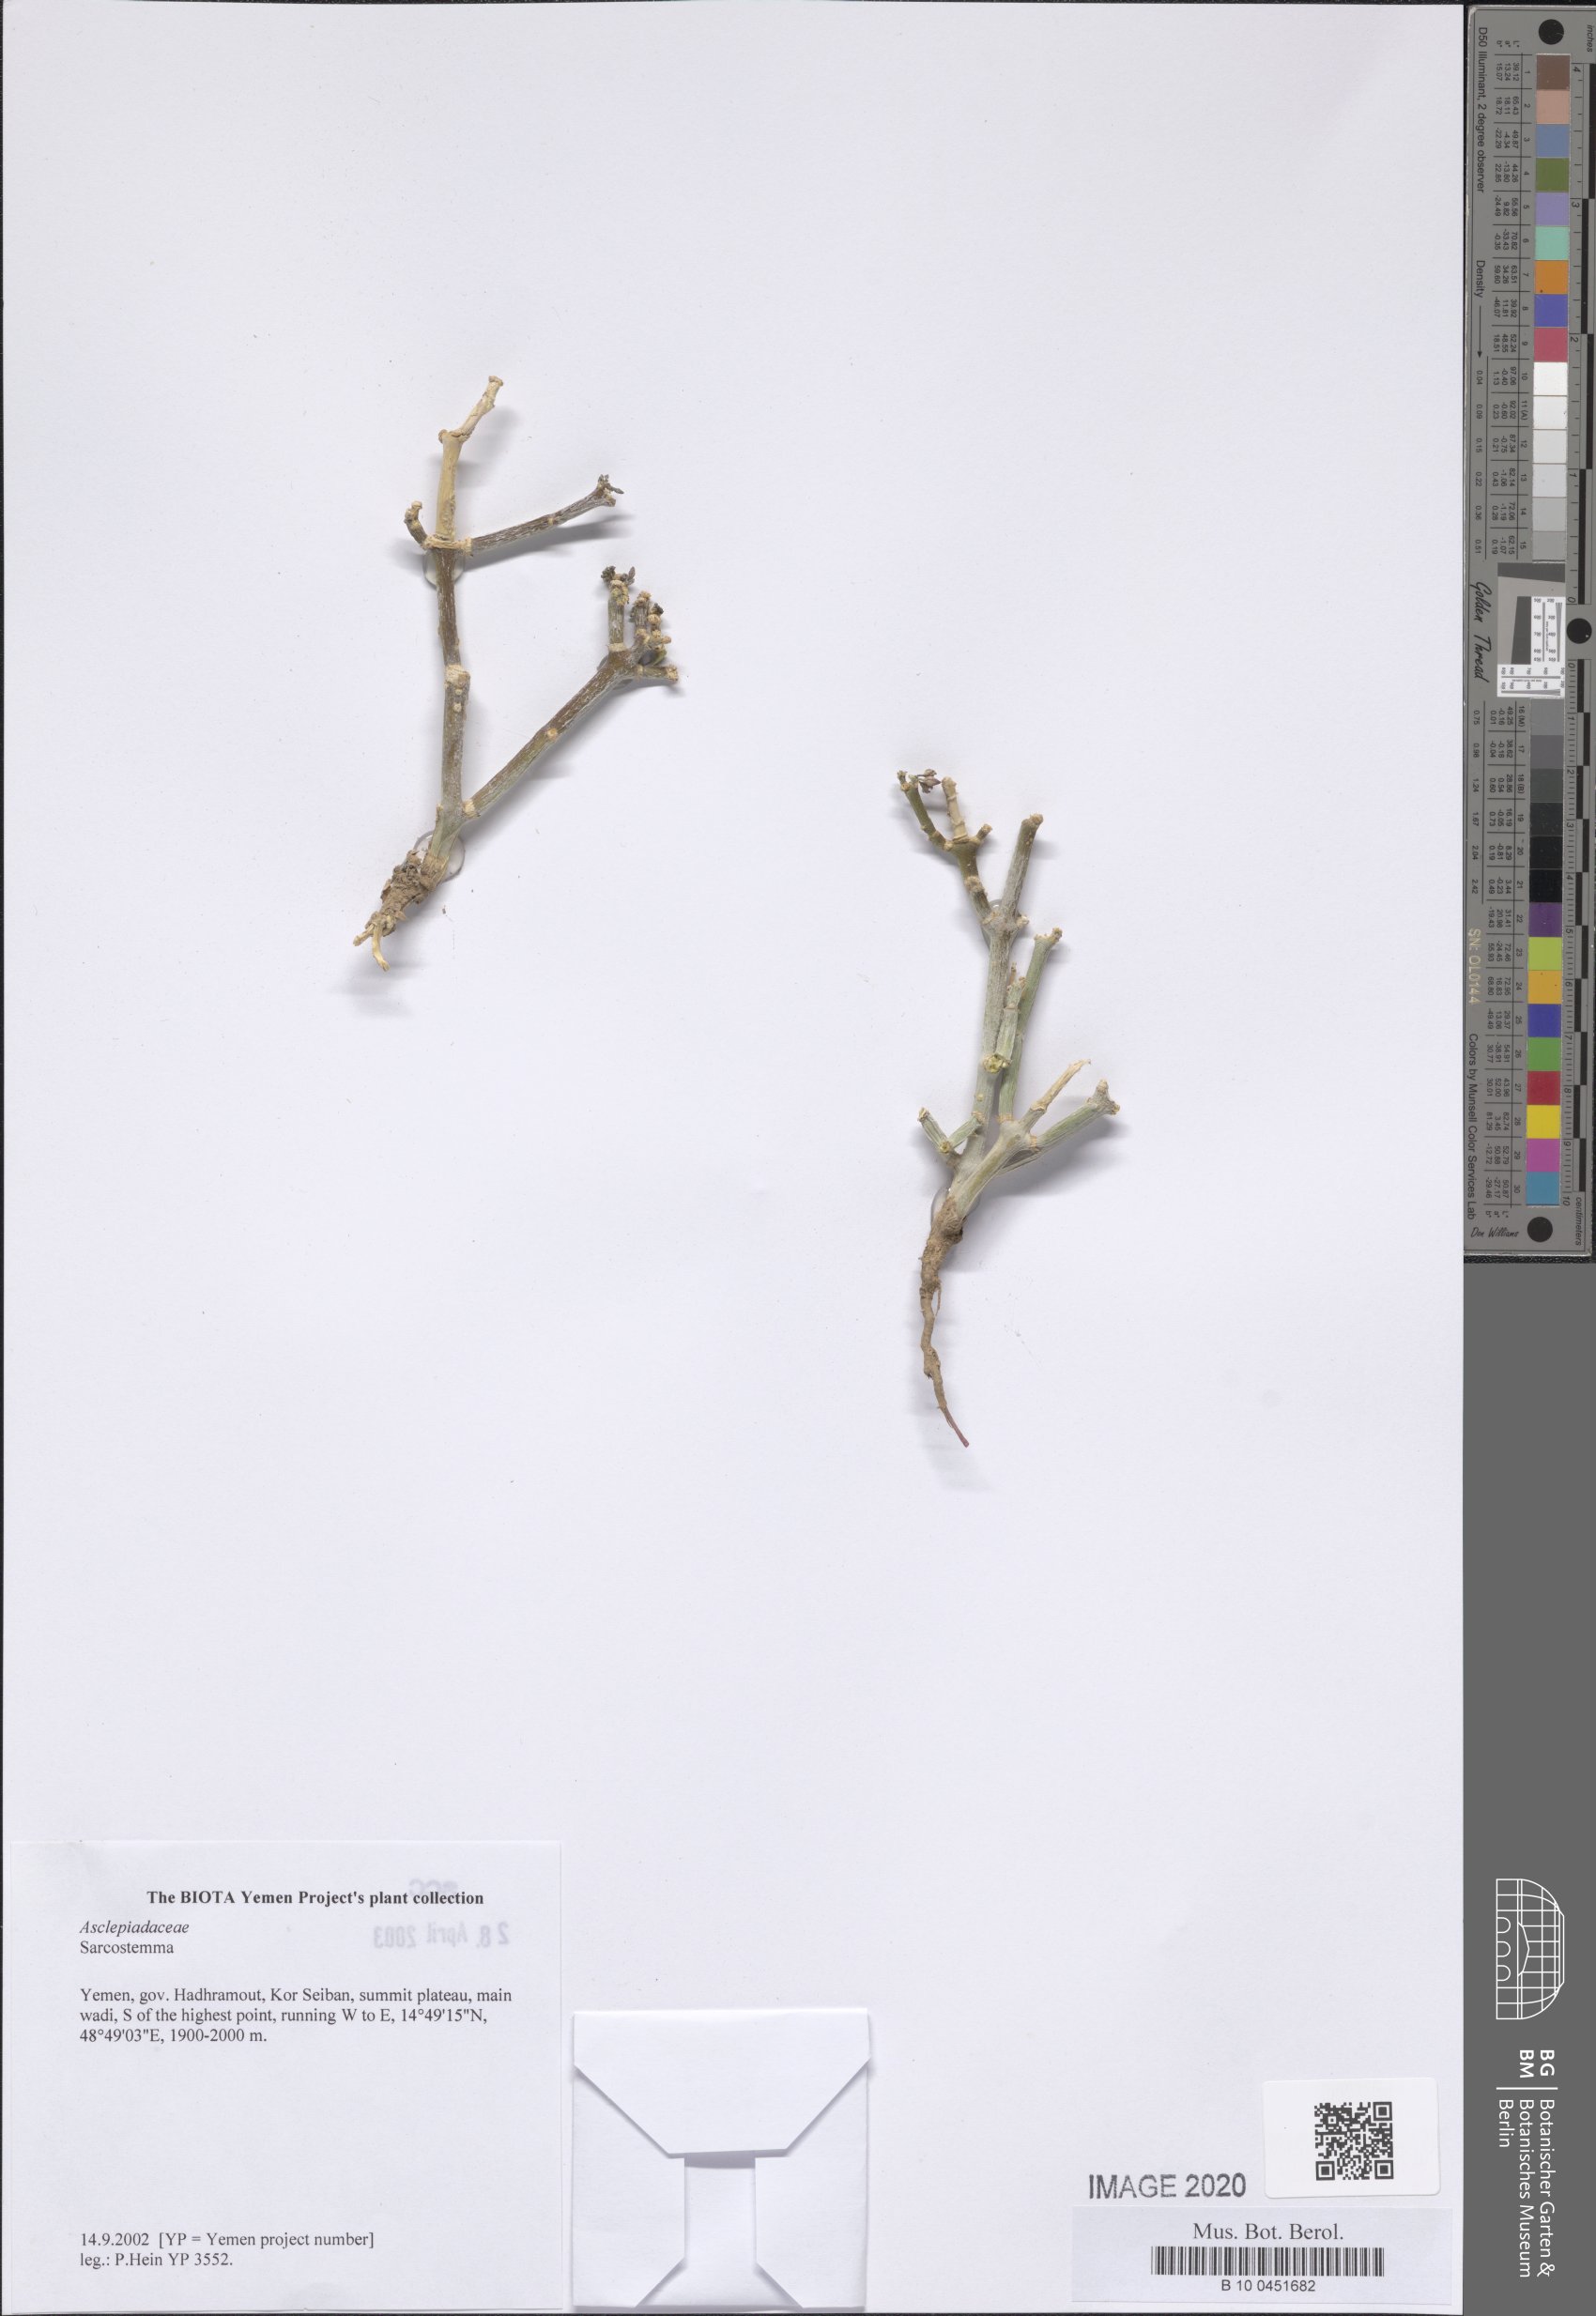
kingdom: Plantae
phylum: Tracheophyta
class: Magnoliopsida
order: Gentianales
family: Apocynaceae
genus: Cynanchum
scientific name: Cynanchum areysianum
